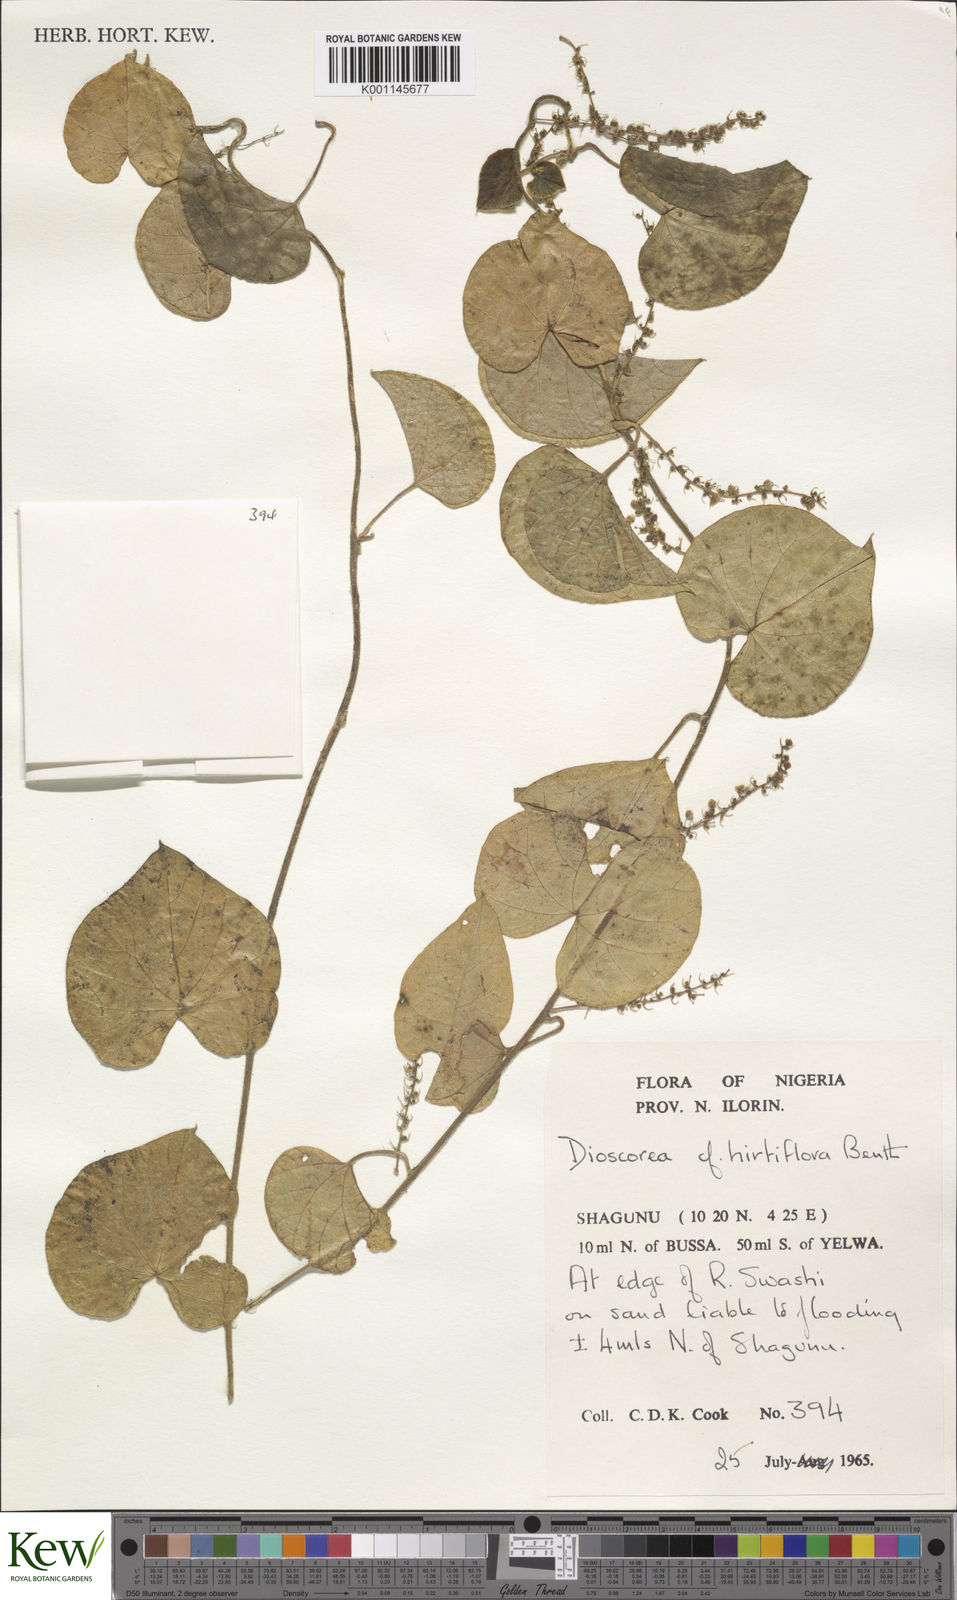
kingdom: Plantae
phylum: Tracheophyta
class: Liliopsida
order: Dioscoreales
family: Dioscoreaceae
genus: Dioscorea
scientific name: Dioscorea hirtiflora
